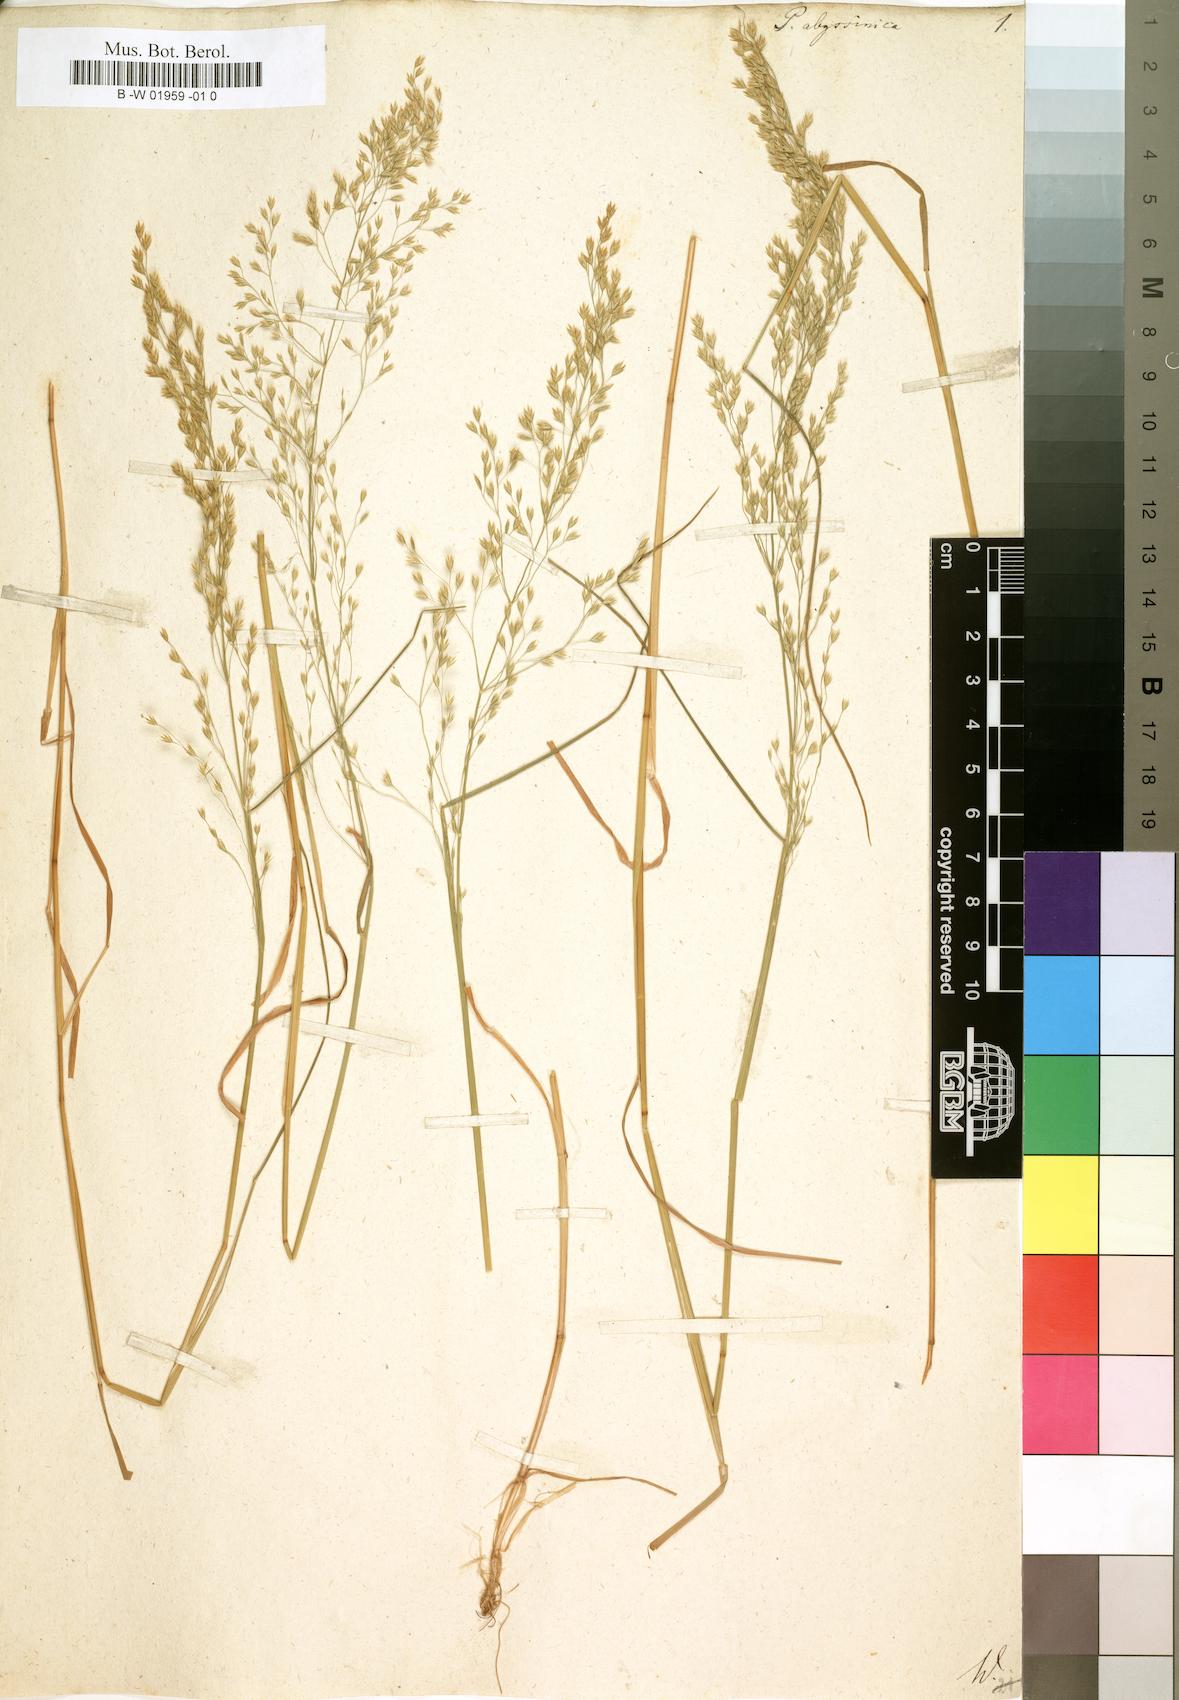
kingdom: Plantae
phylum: Tracheophyta
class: Liliopsida
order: Poales
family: Poaceae
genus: Eragrostis
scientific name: Eragrostis tef
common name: Teff
